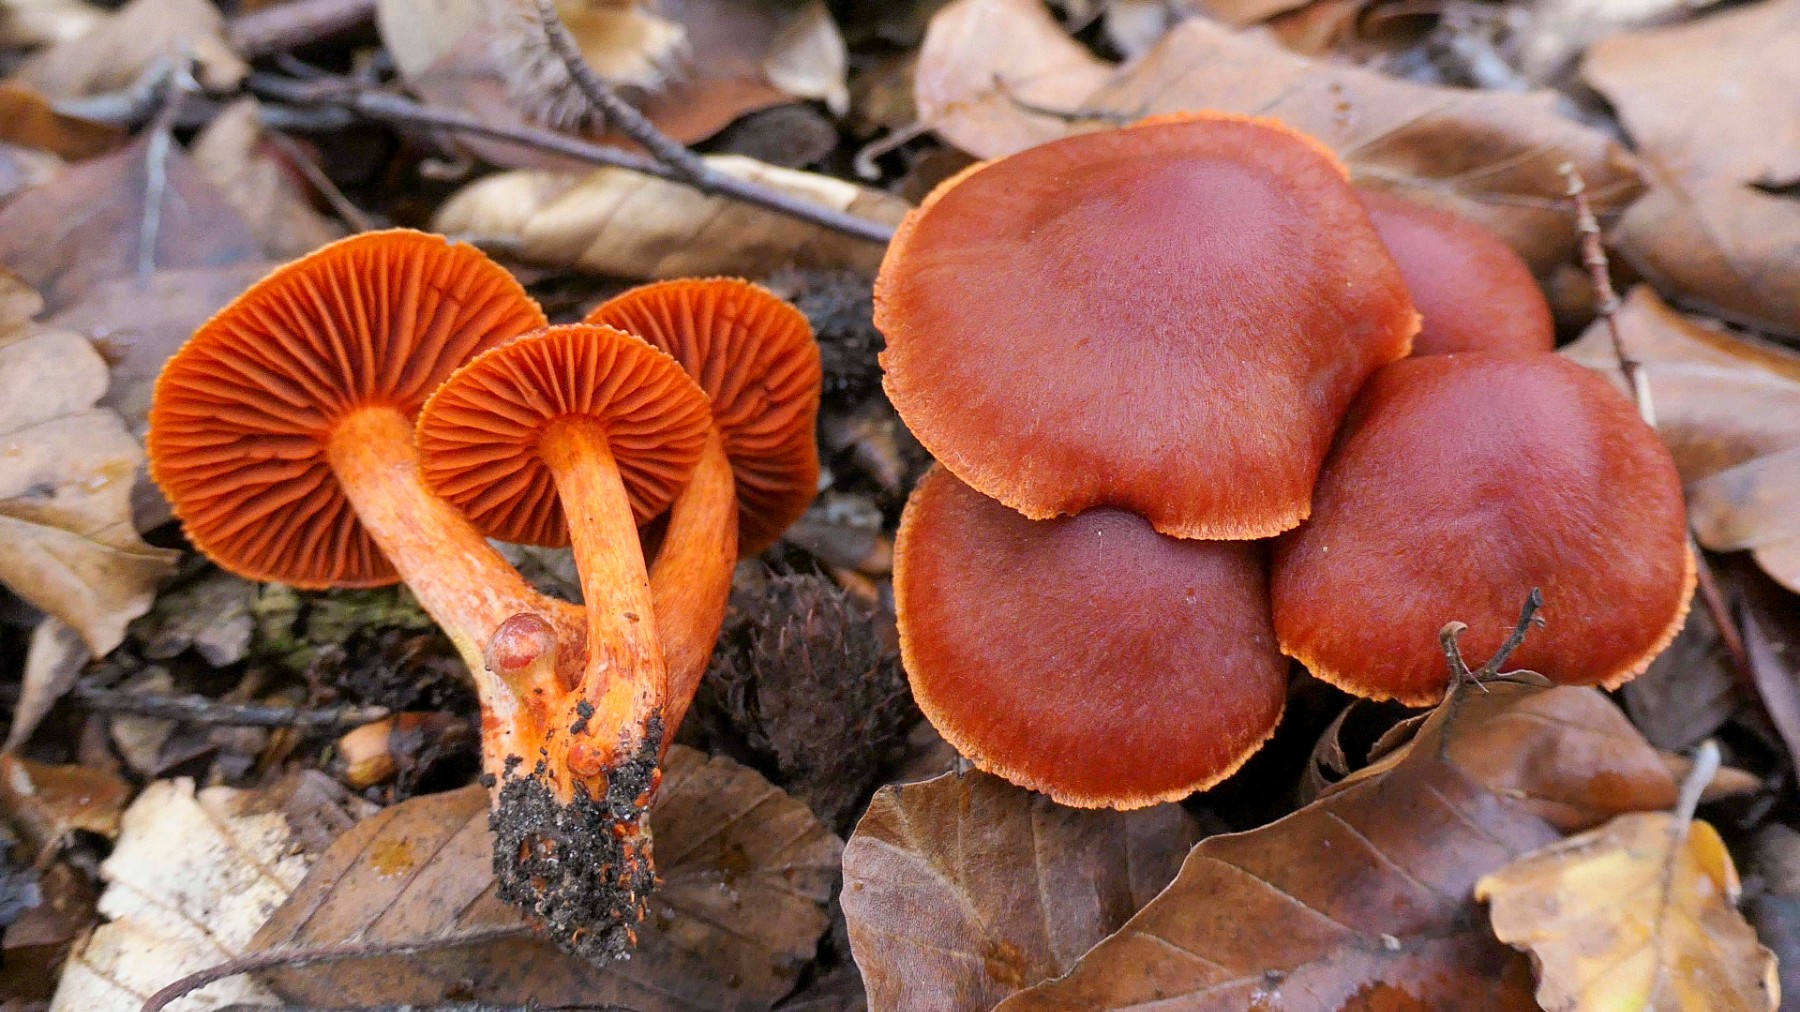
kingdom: Fungi
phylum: Basidiomycota
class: Agaricomycetes
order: Agaricales
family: Cortinariaceae
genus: Cortinarius
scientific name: Cortinarius cinnabarinus
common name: cinnober-slørhat
